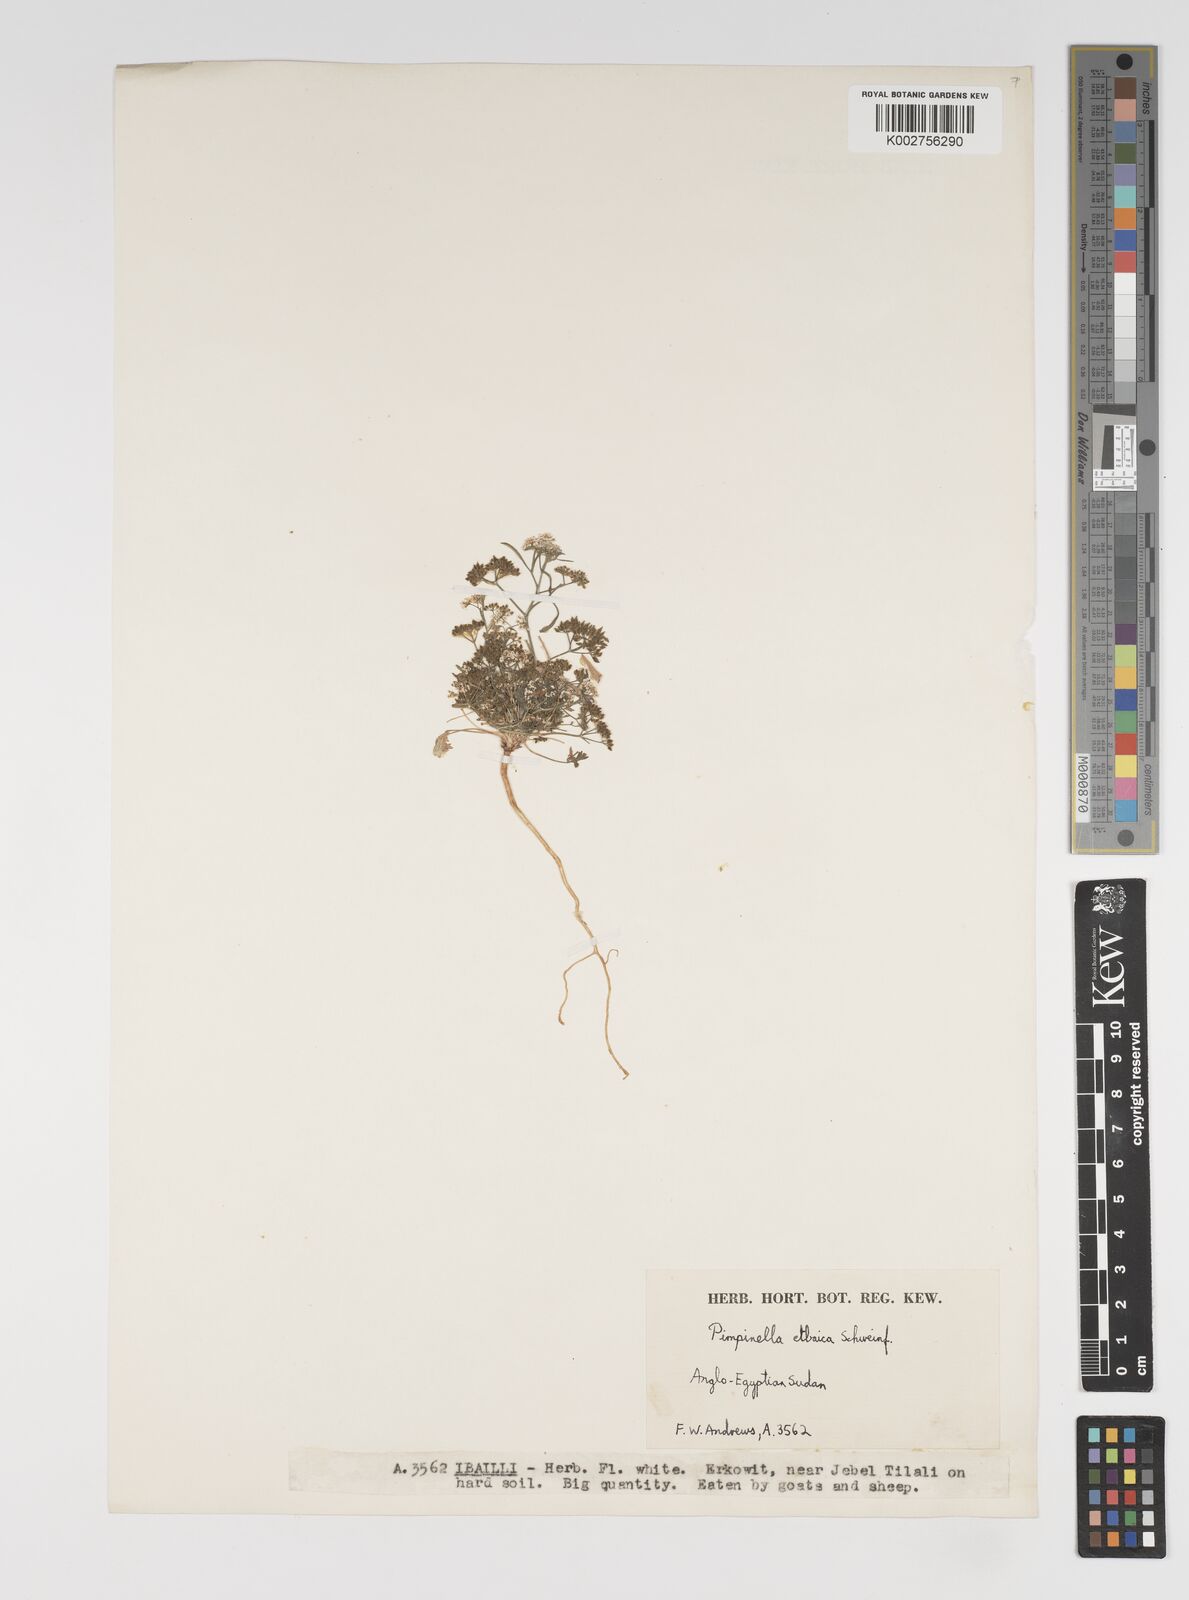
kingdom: Plantae
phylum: Tracheophyta
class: Magnoliopsida
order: Apiales
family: Apiaceae
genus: Pimpinella
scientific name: Pimpinella etbaica
